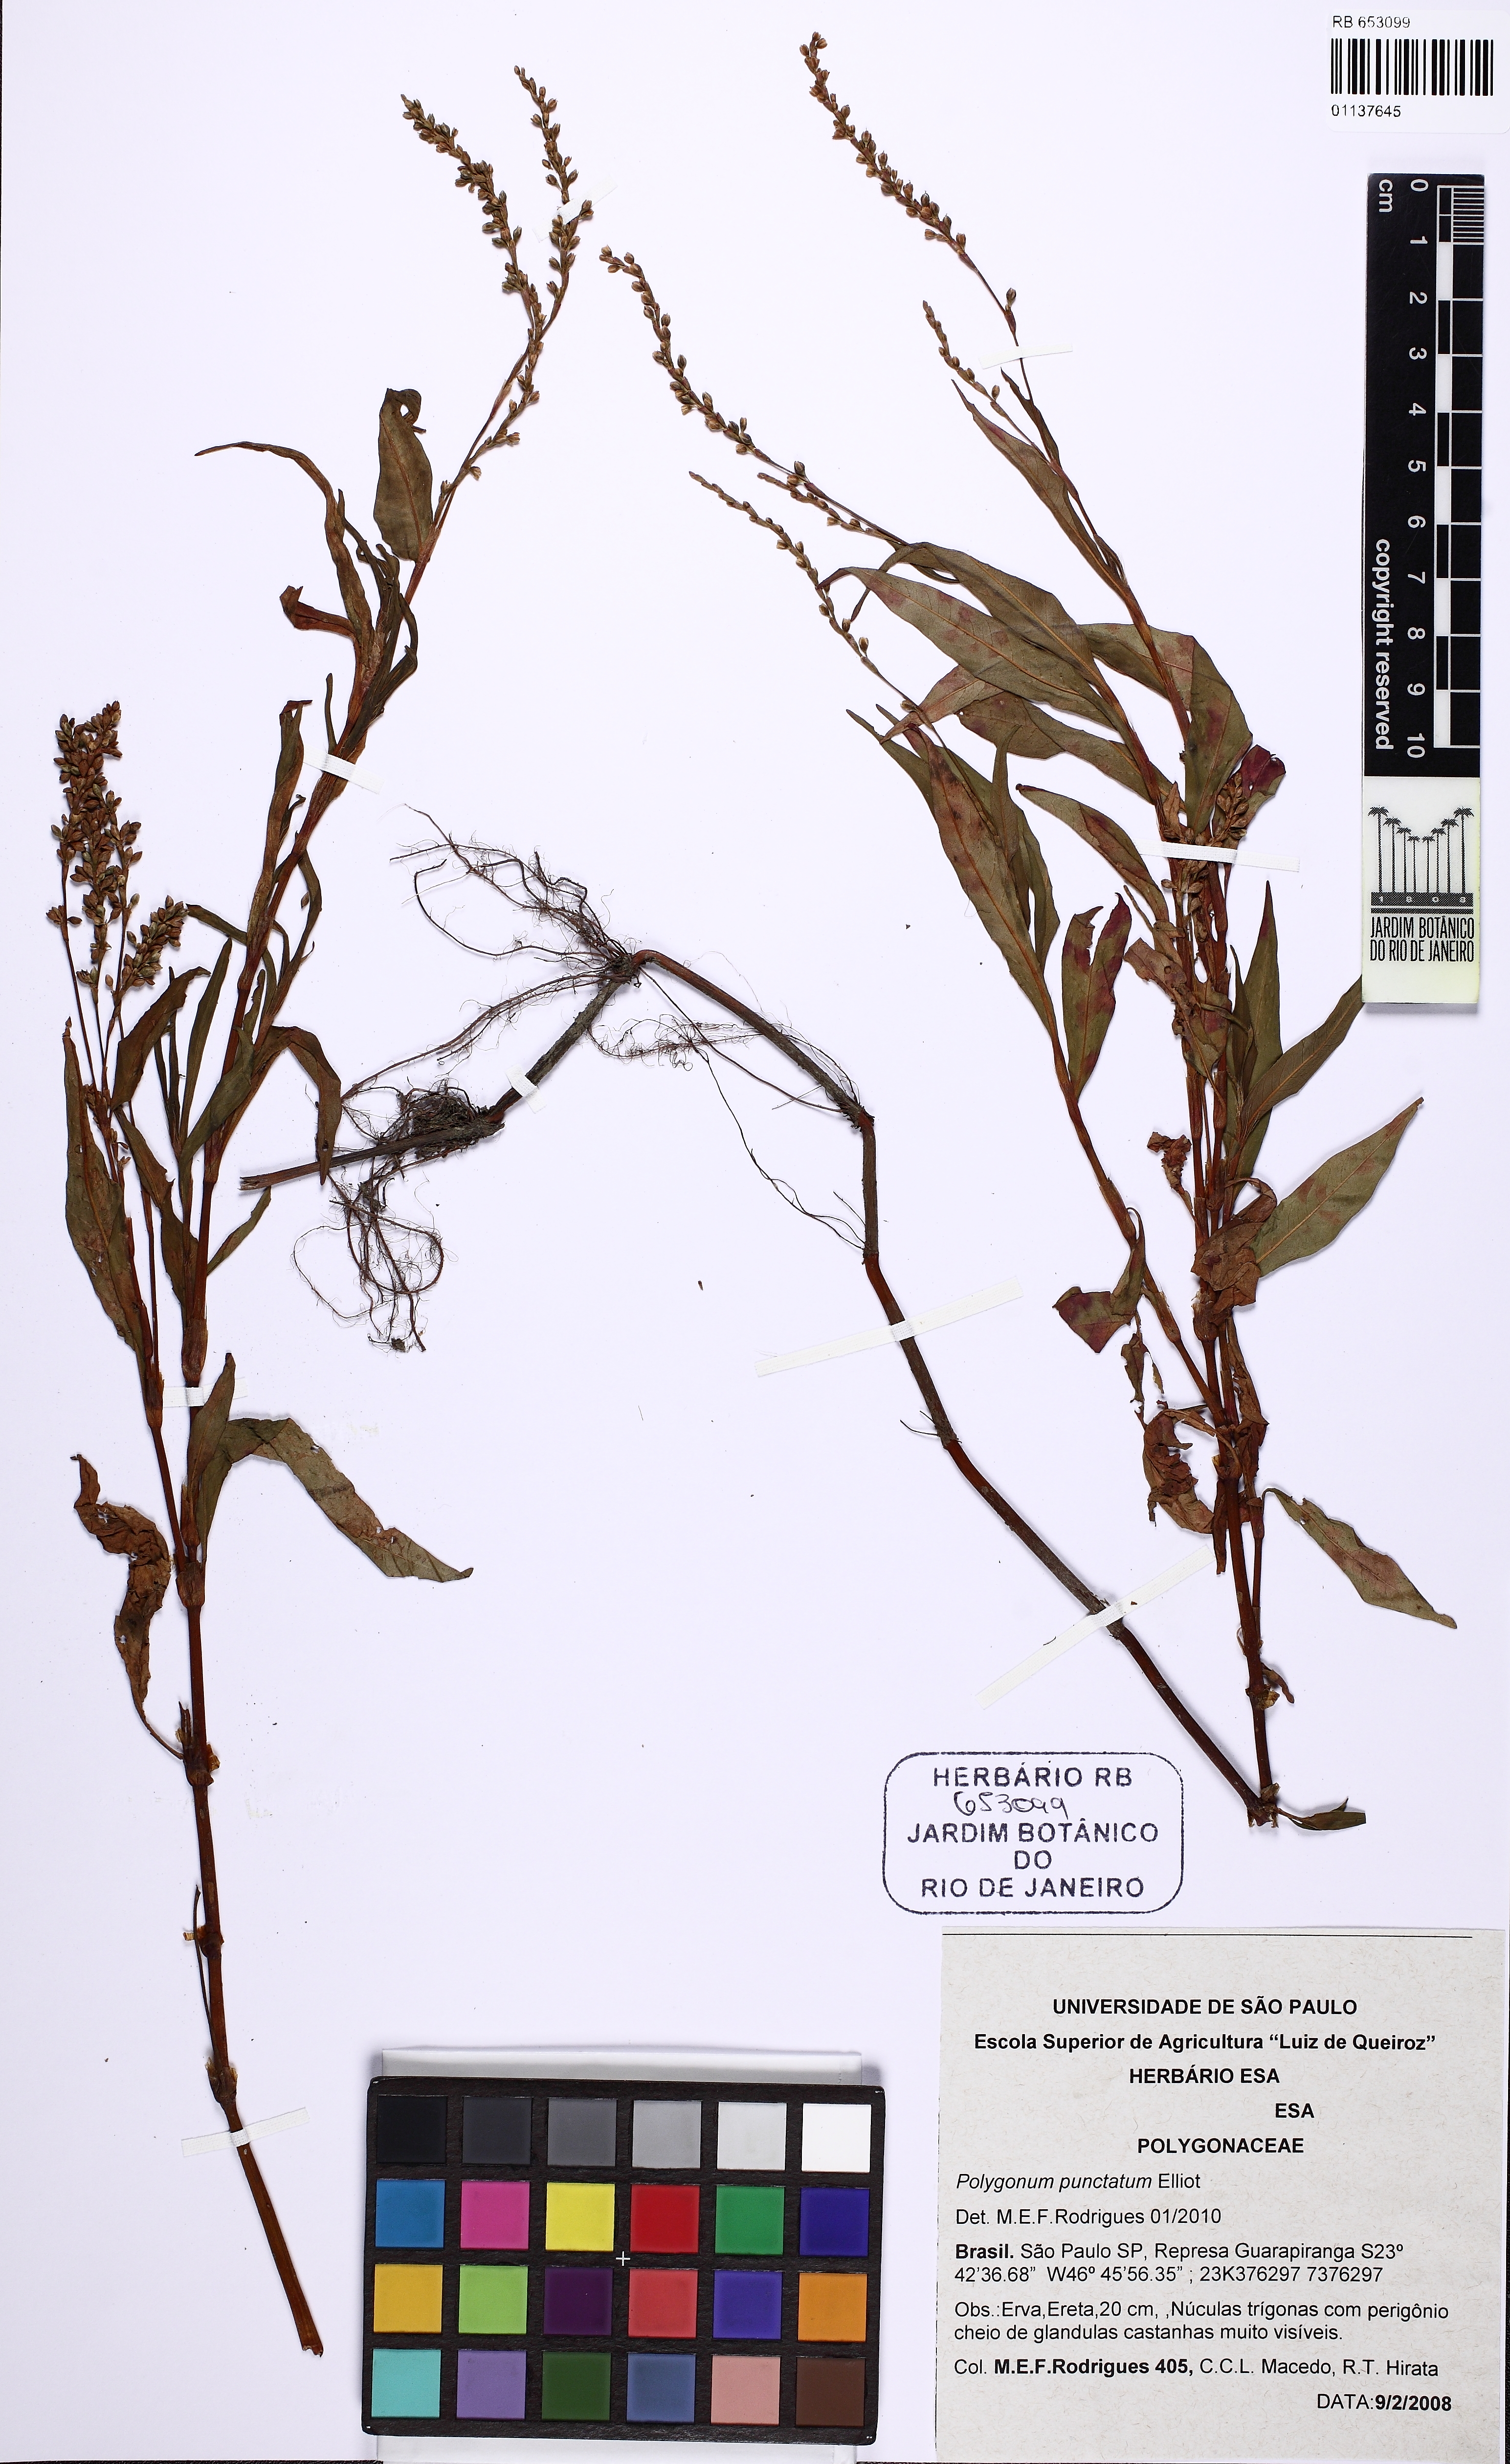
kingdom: Plantae
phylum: Tracheophyta
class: Magnoliopsida
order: Caryophyllales
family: Polygonaceae
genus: Persicaria
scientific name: Persicaria punctata
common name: Dotted smartweed
